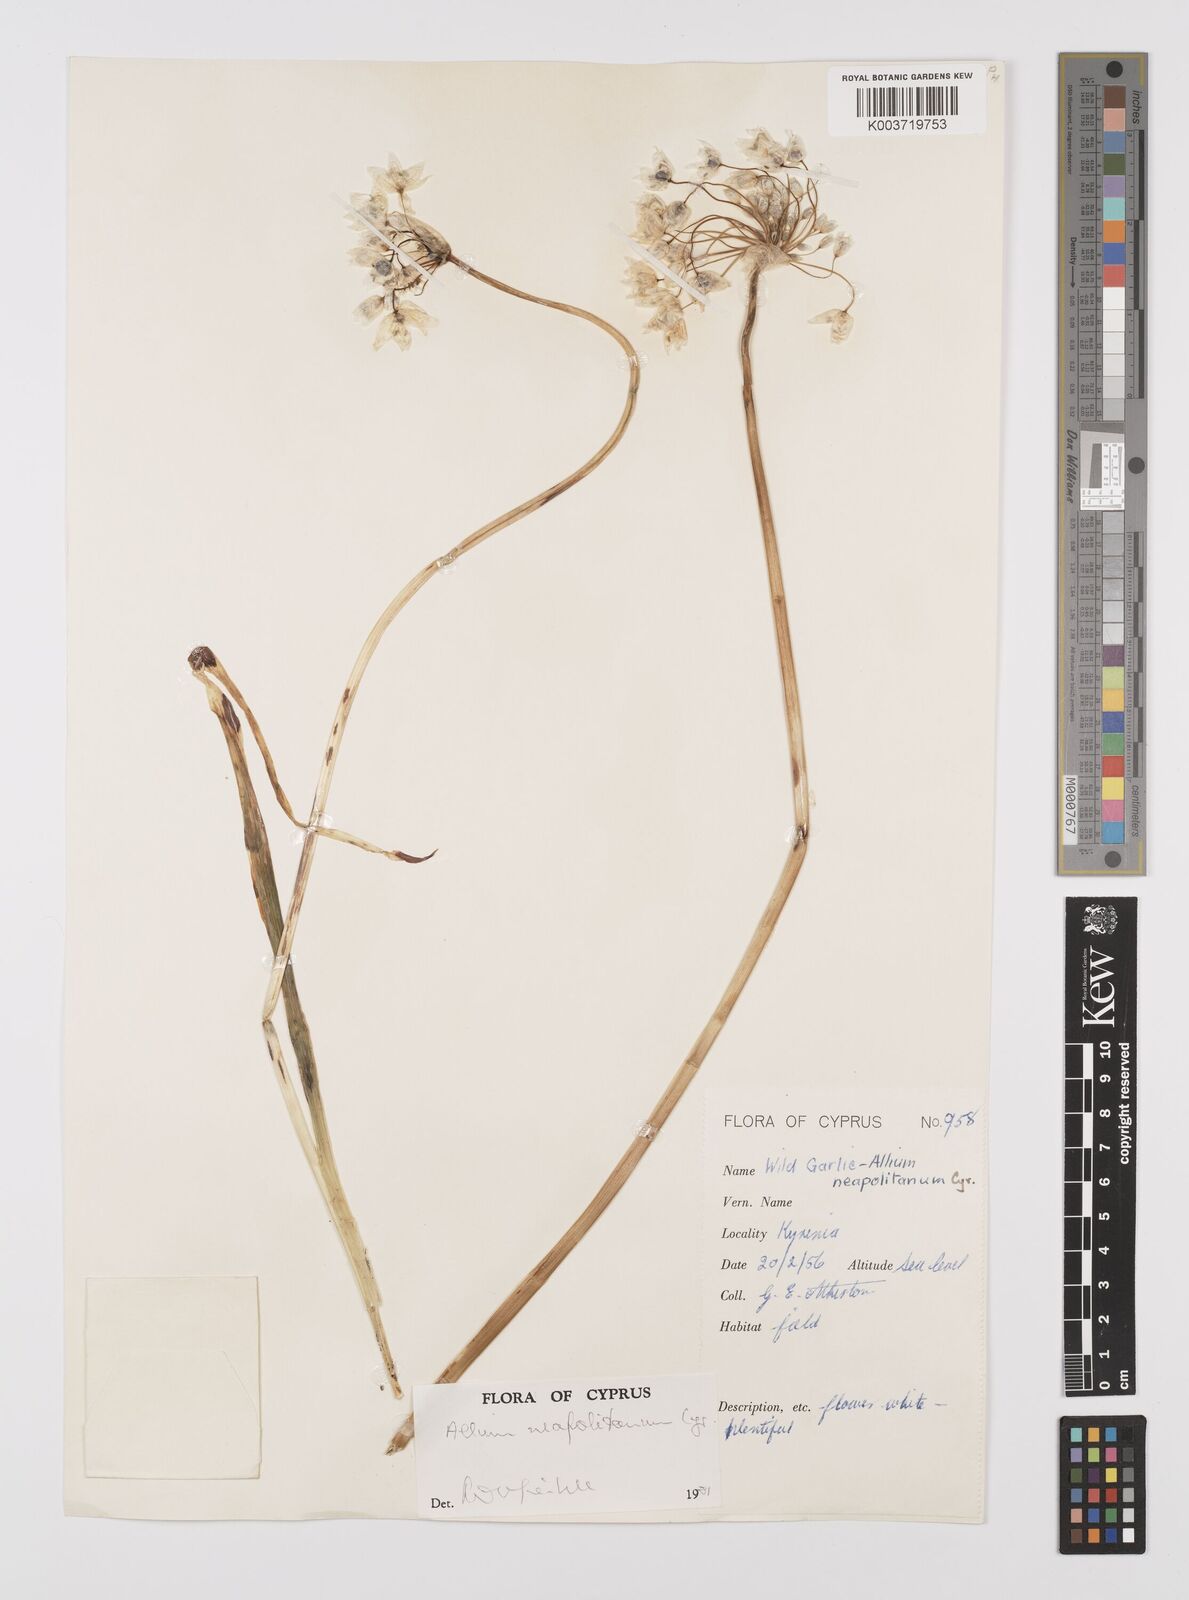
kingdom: Plantae
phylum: Tracheophyta
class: Liliopsida
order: Asparagales
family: Amaryllidaceae
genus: Allium
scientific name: Allium neapolitanum
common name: Neapolitan garlic
